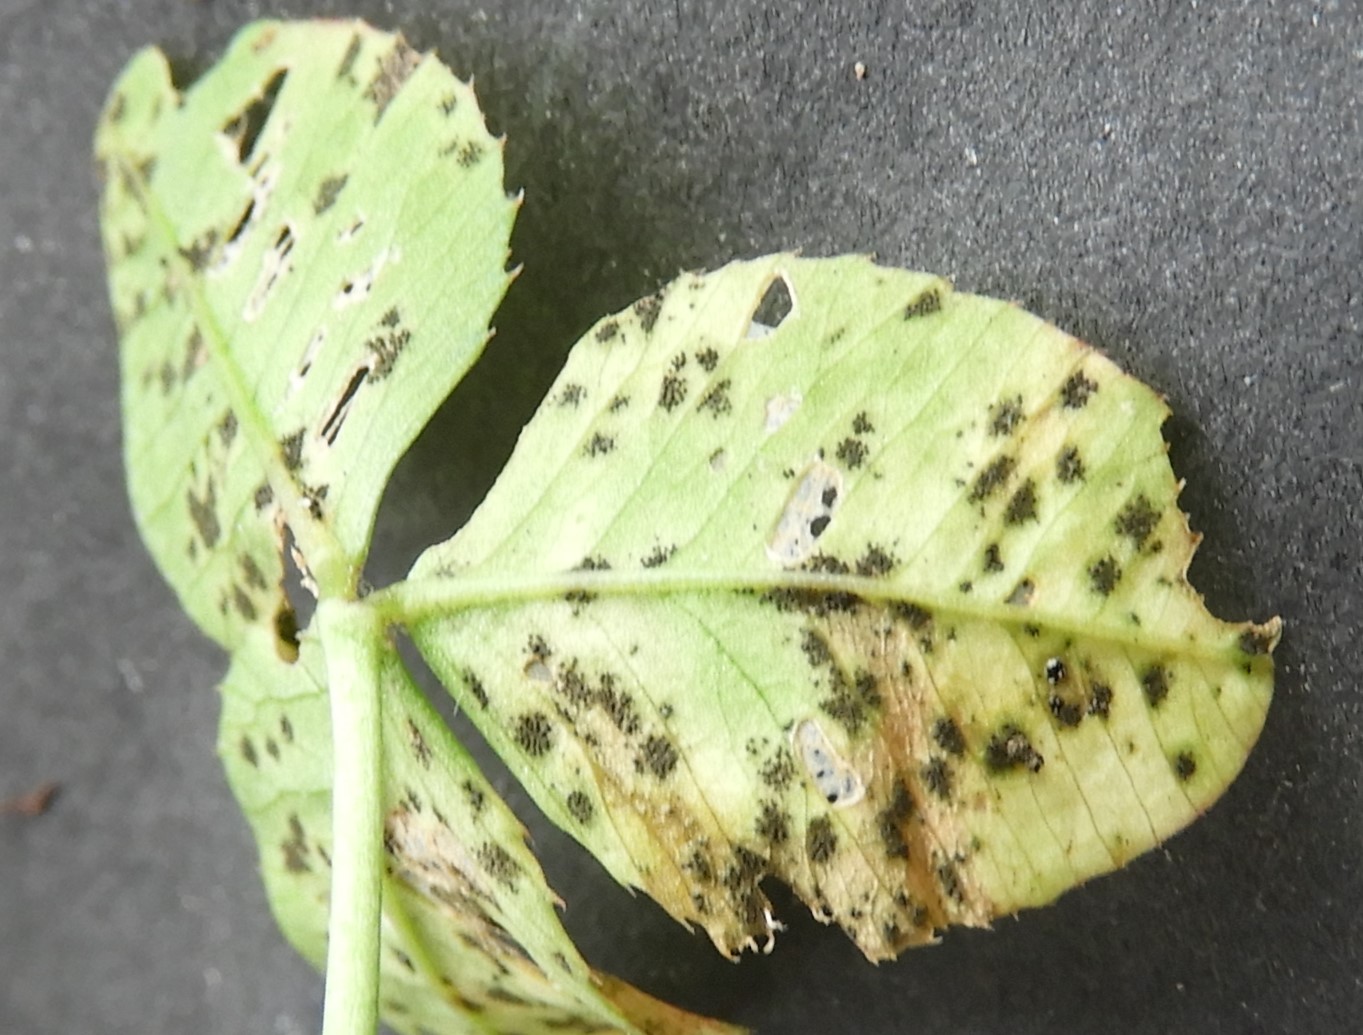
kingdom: Fungi
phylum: Ascomycota
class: Dothideomycetes
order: Mycosphaerellales
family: Mycosphaerellaceae
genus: Polythrincium
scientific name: Polythrincium trifolii
